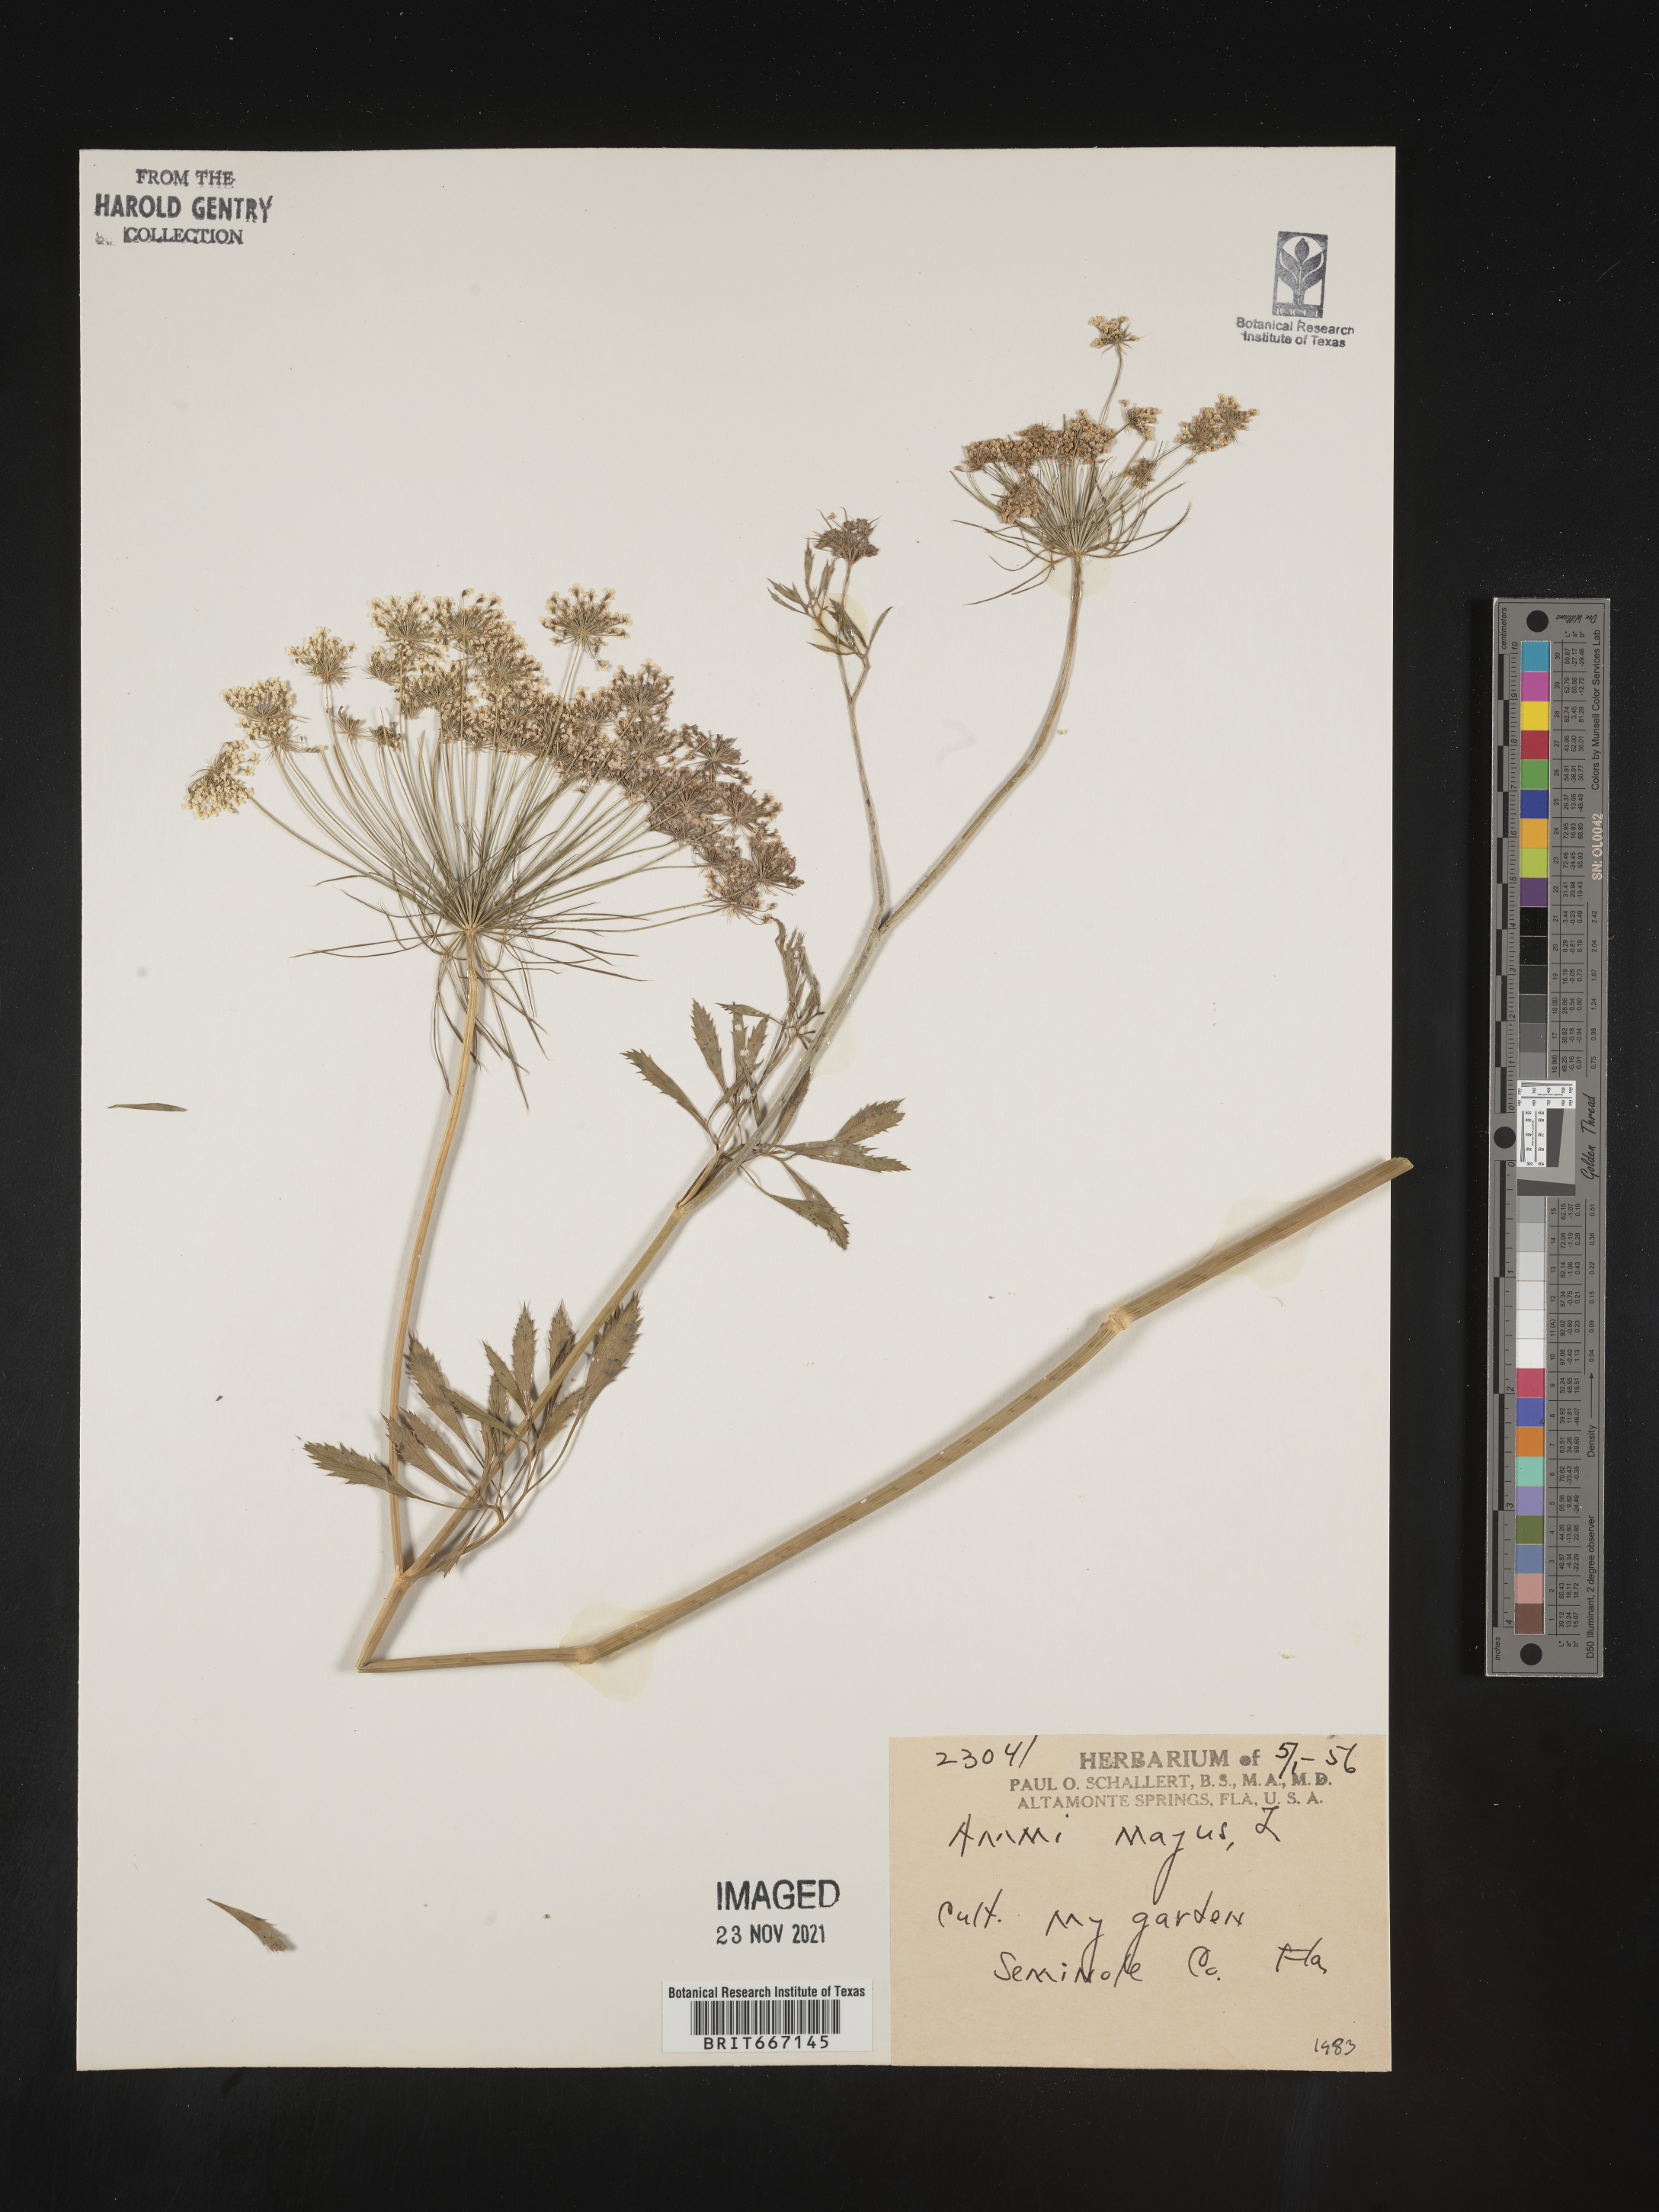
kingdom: Plantae
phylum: Tracheophyta
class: Magnoliopsida
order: Apiales
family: Apiaceae
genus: Ammi
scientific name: Ammi
